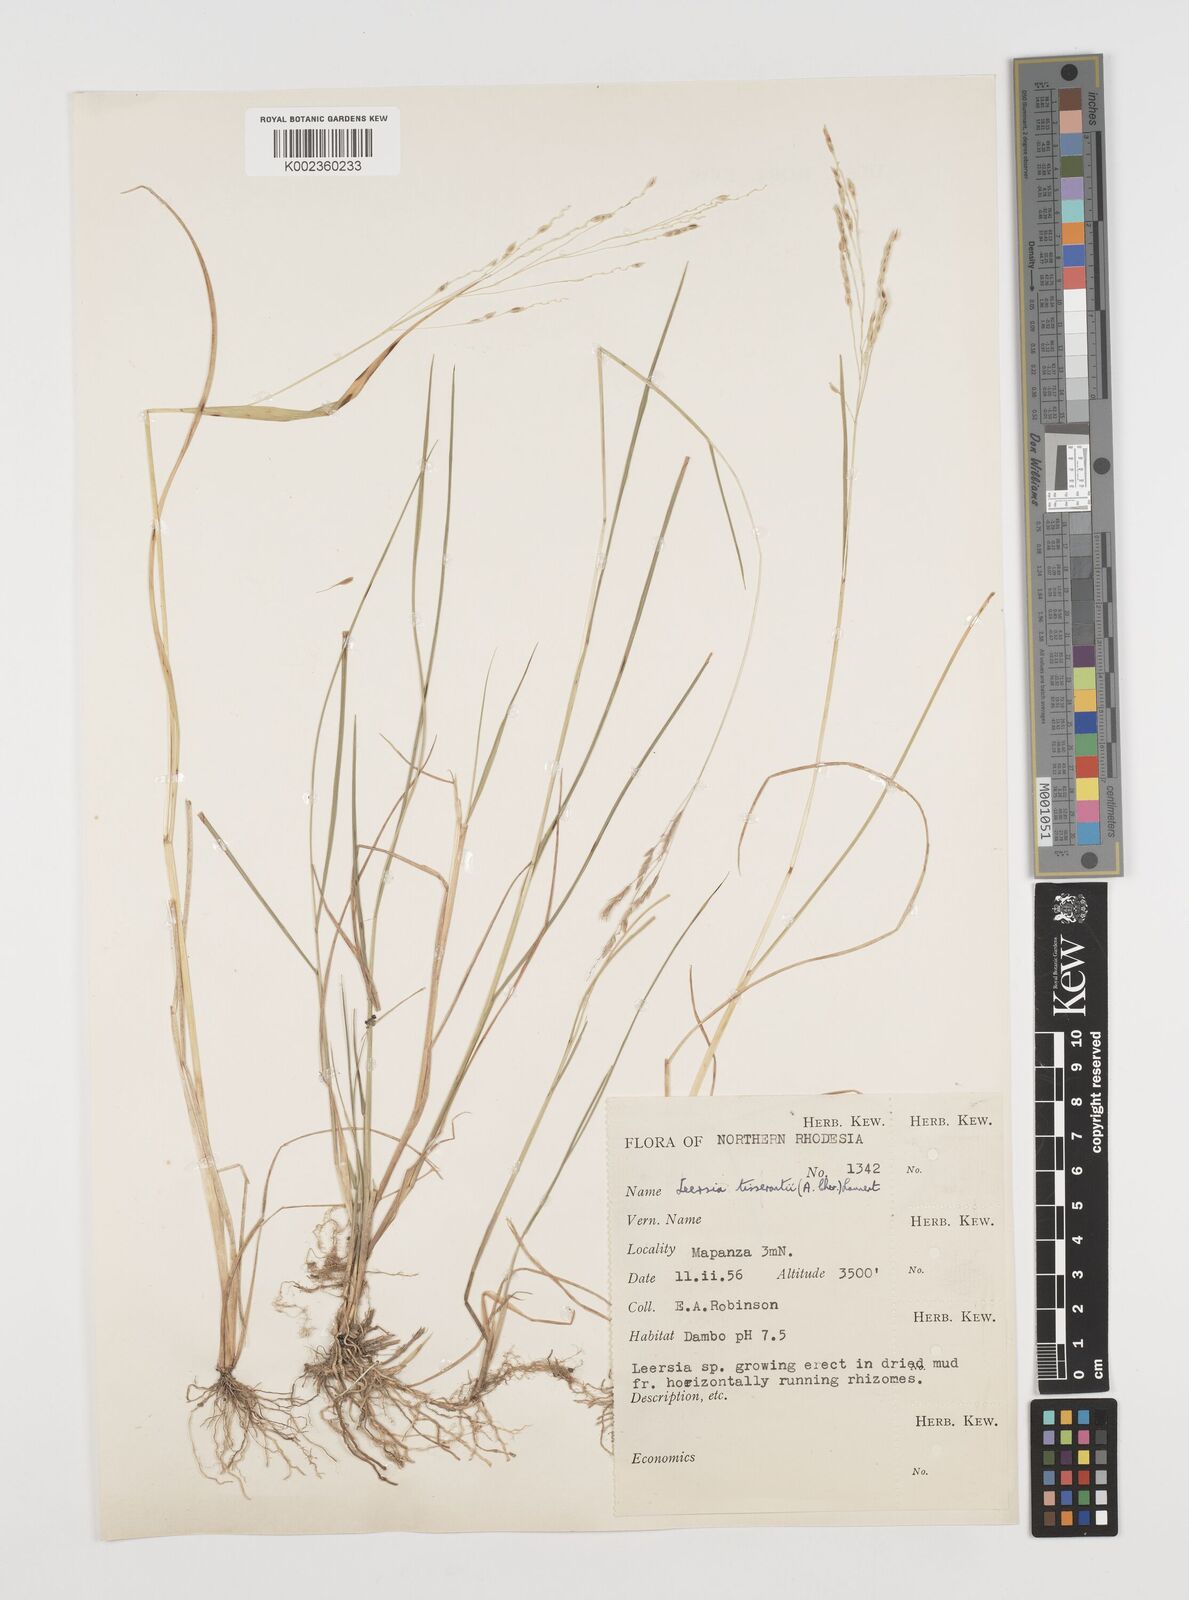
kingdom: Plantae
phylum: Tracheophyta
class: Liliopsida
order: Poales
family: Poaceae
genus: Leersia
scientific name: Leersia tisserantii
